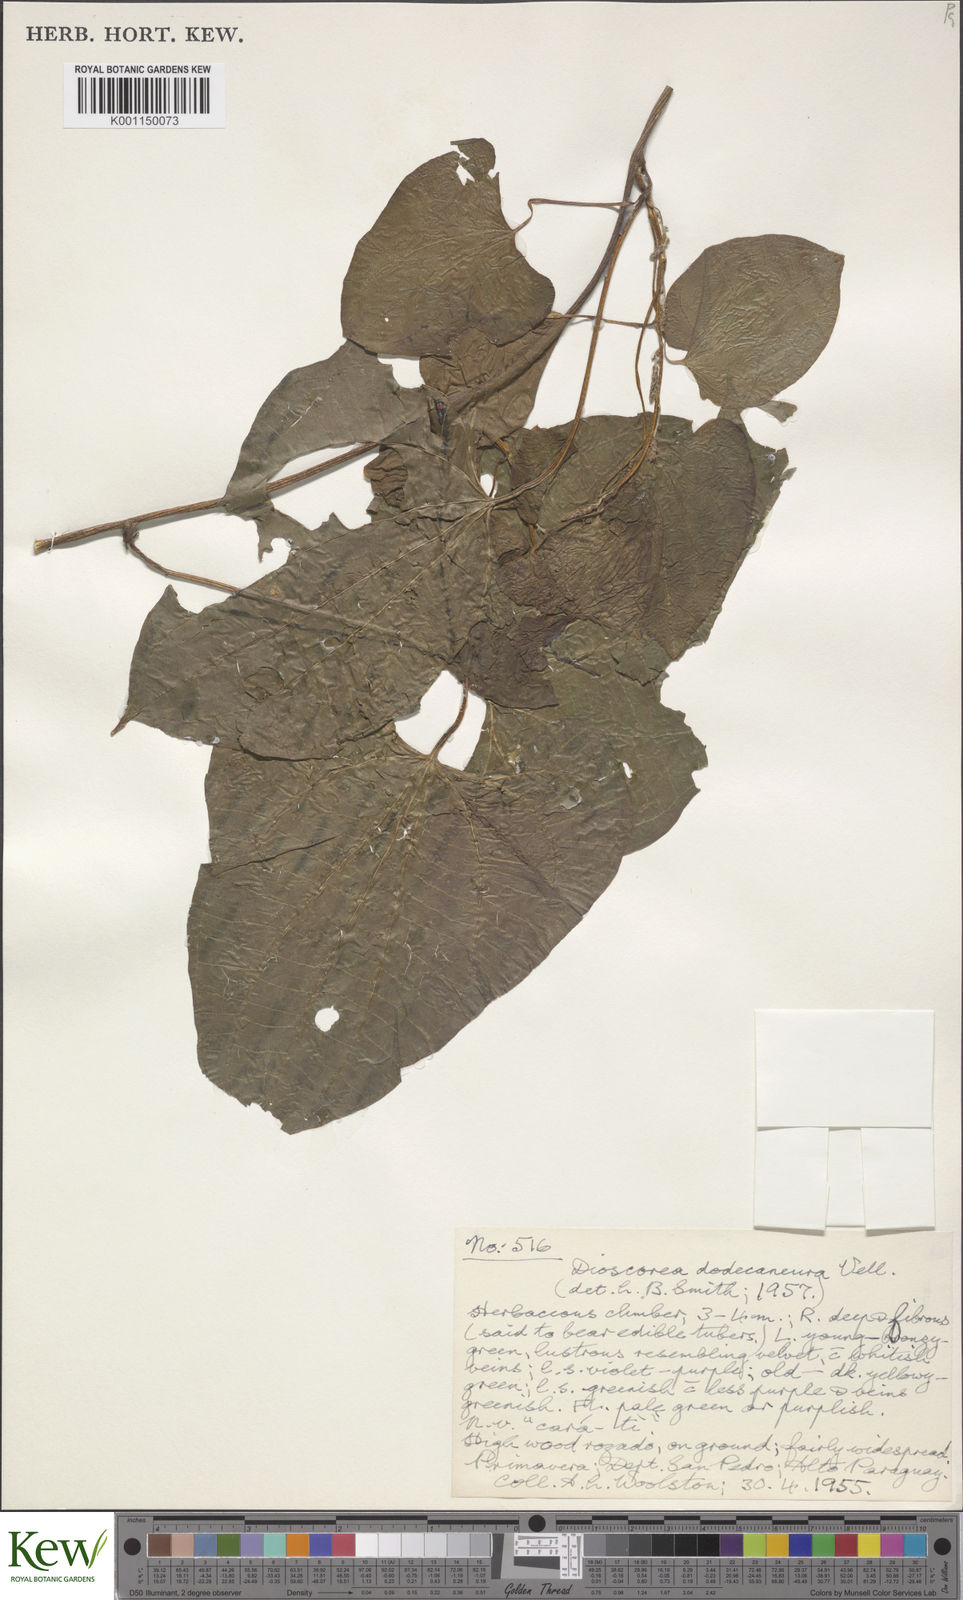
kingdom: Plantae
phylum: Tracheophyta
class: Liliopsida
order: Dioscoreales
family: Dioscoreaceae
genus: Dioscorea
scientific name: Dioscorea dodecaneura
